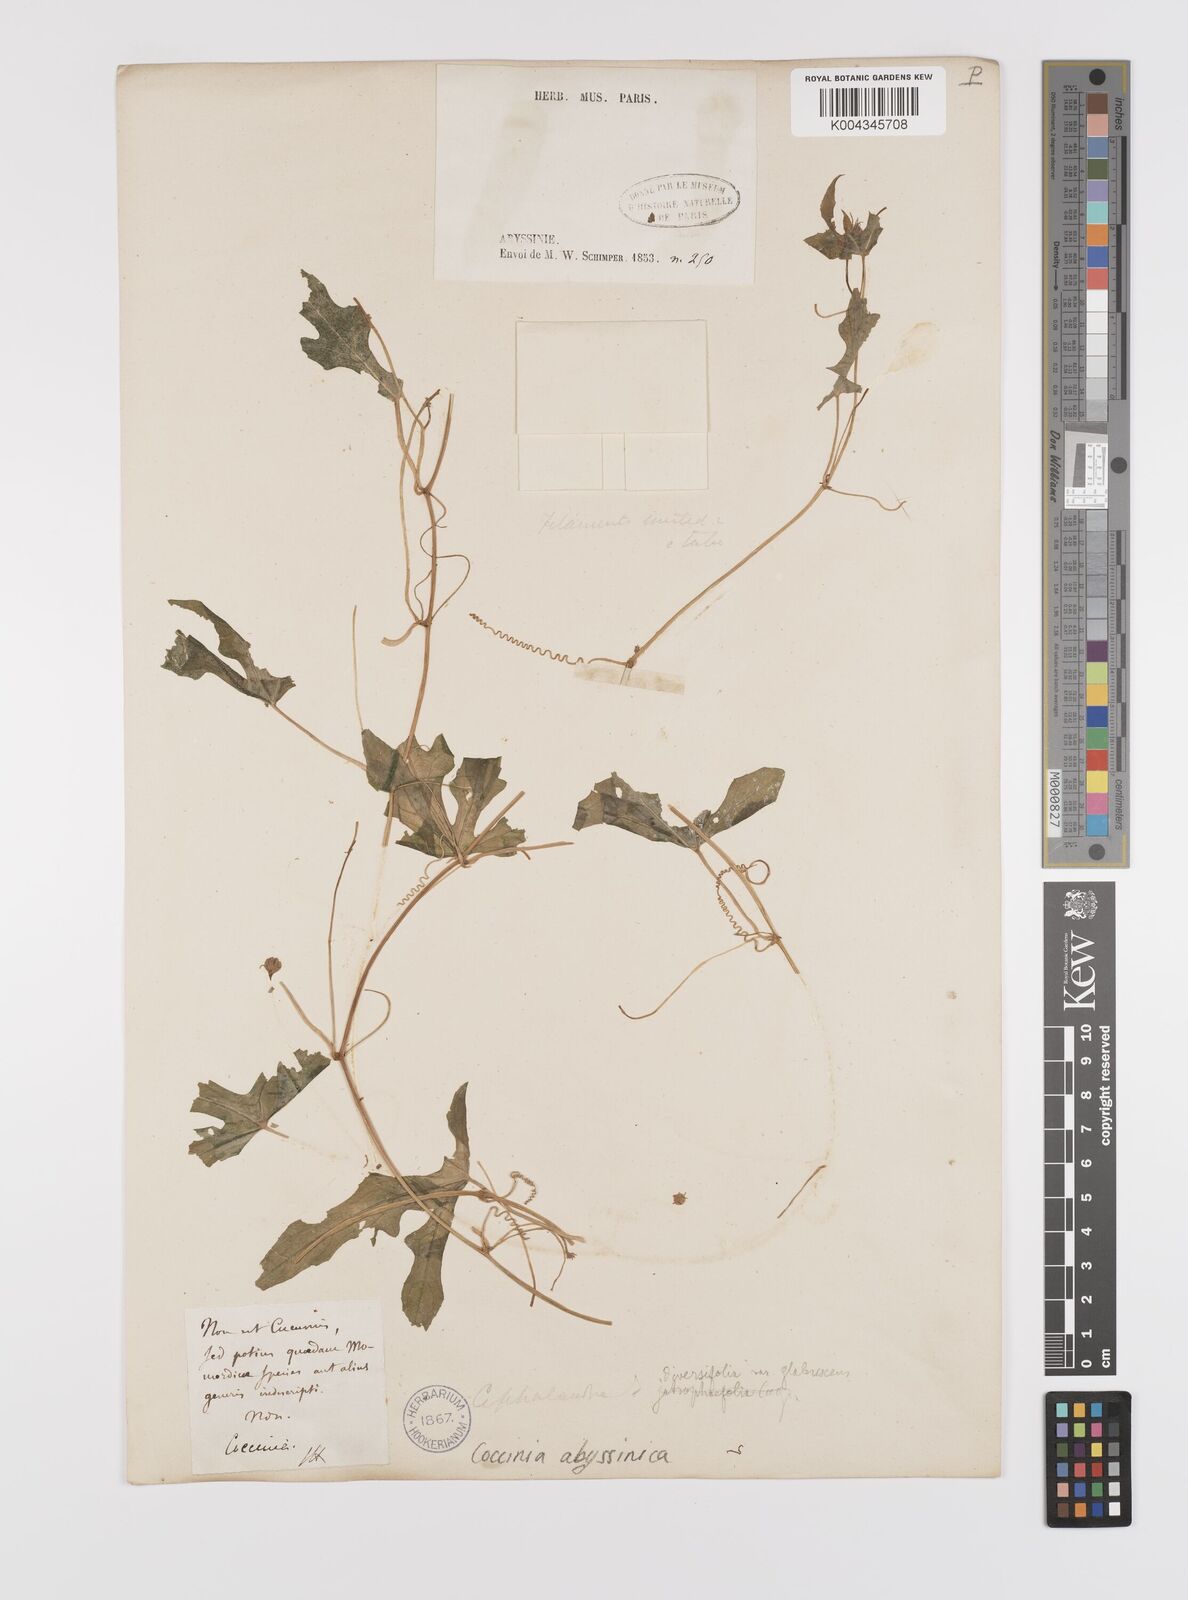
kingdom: Plantae
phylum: Tracheophyta
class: Magnoliopsida
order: Cucurbitales
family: Cucurbitaceae
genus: Coccinia
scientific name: Coccinia abyssinica
